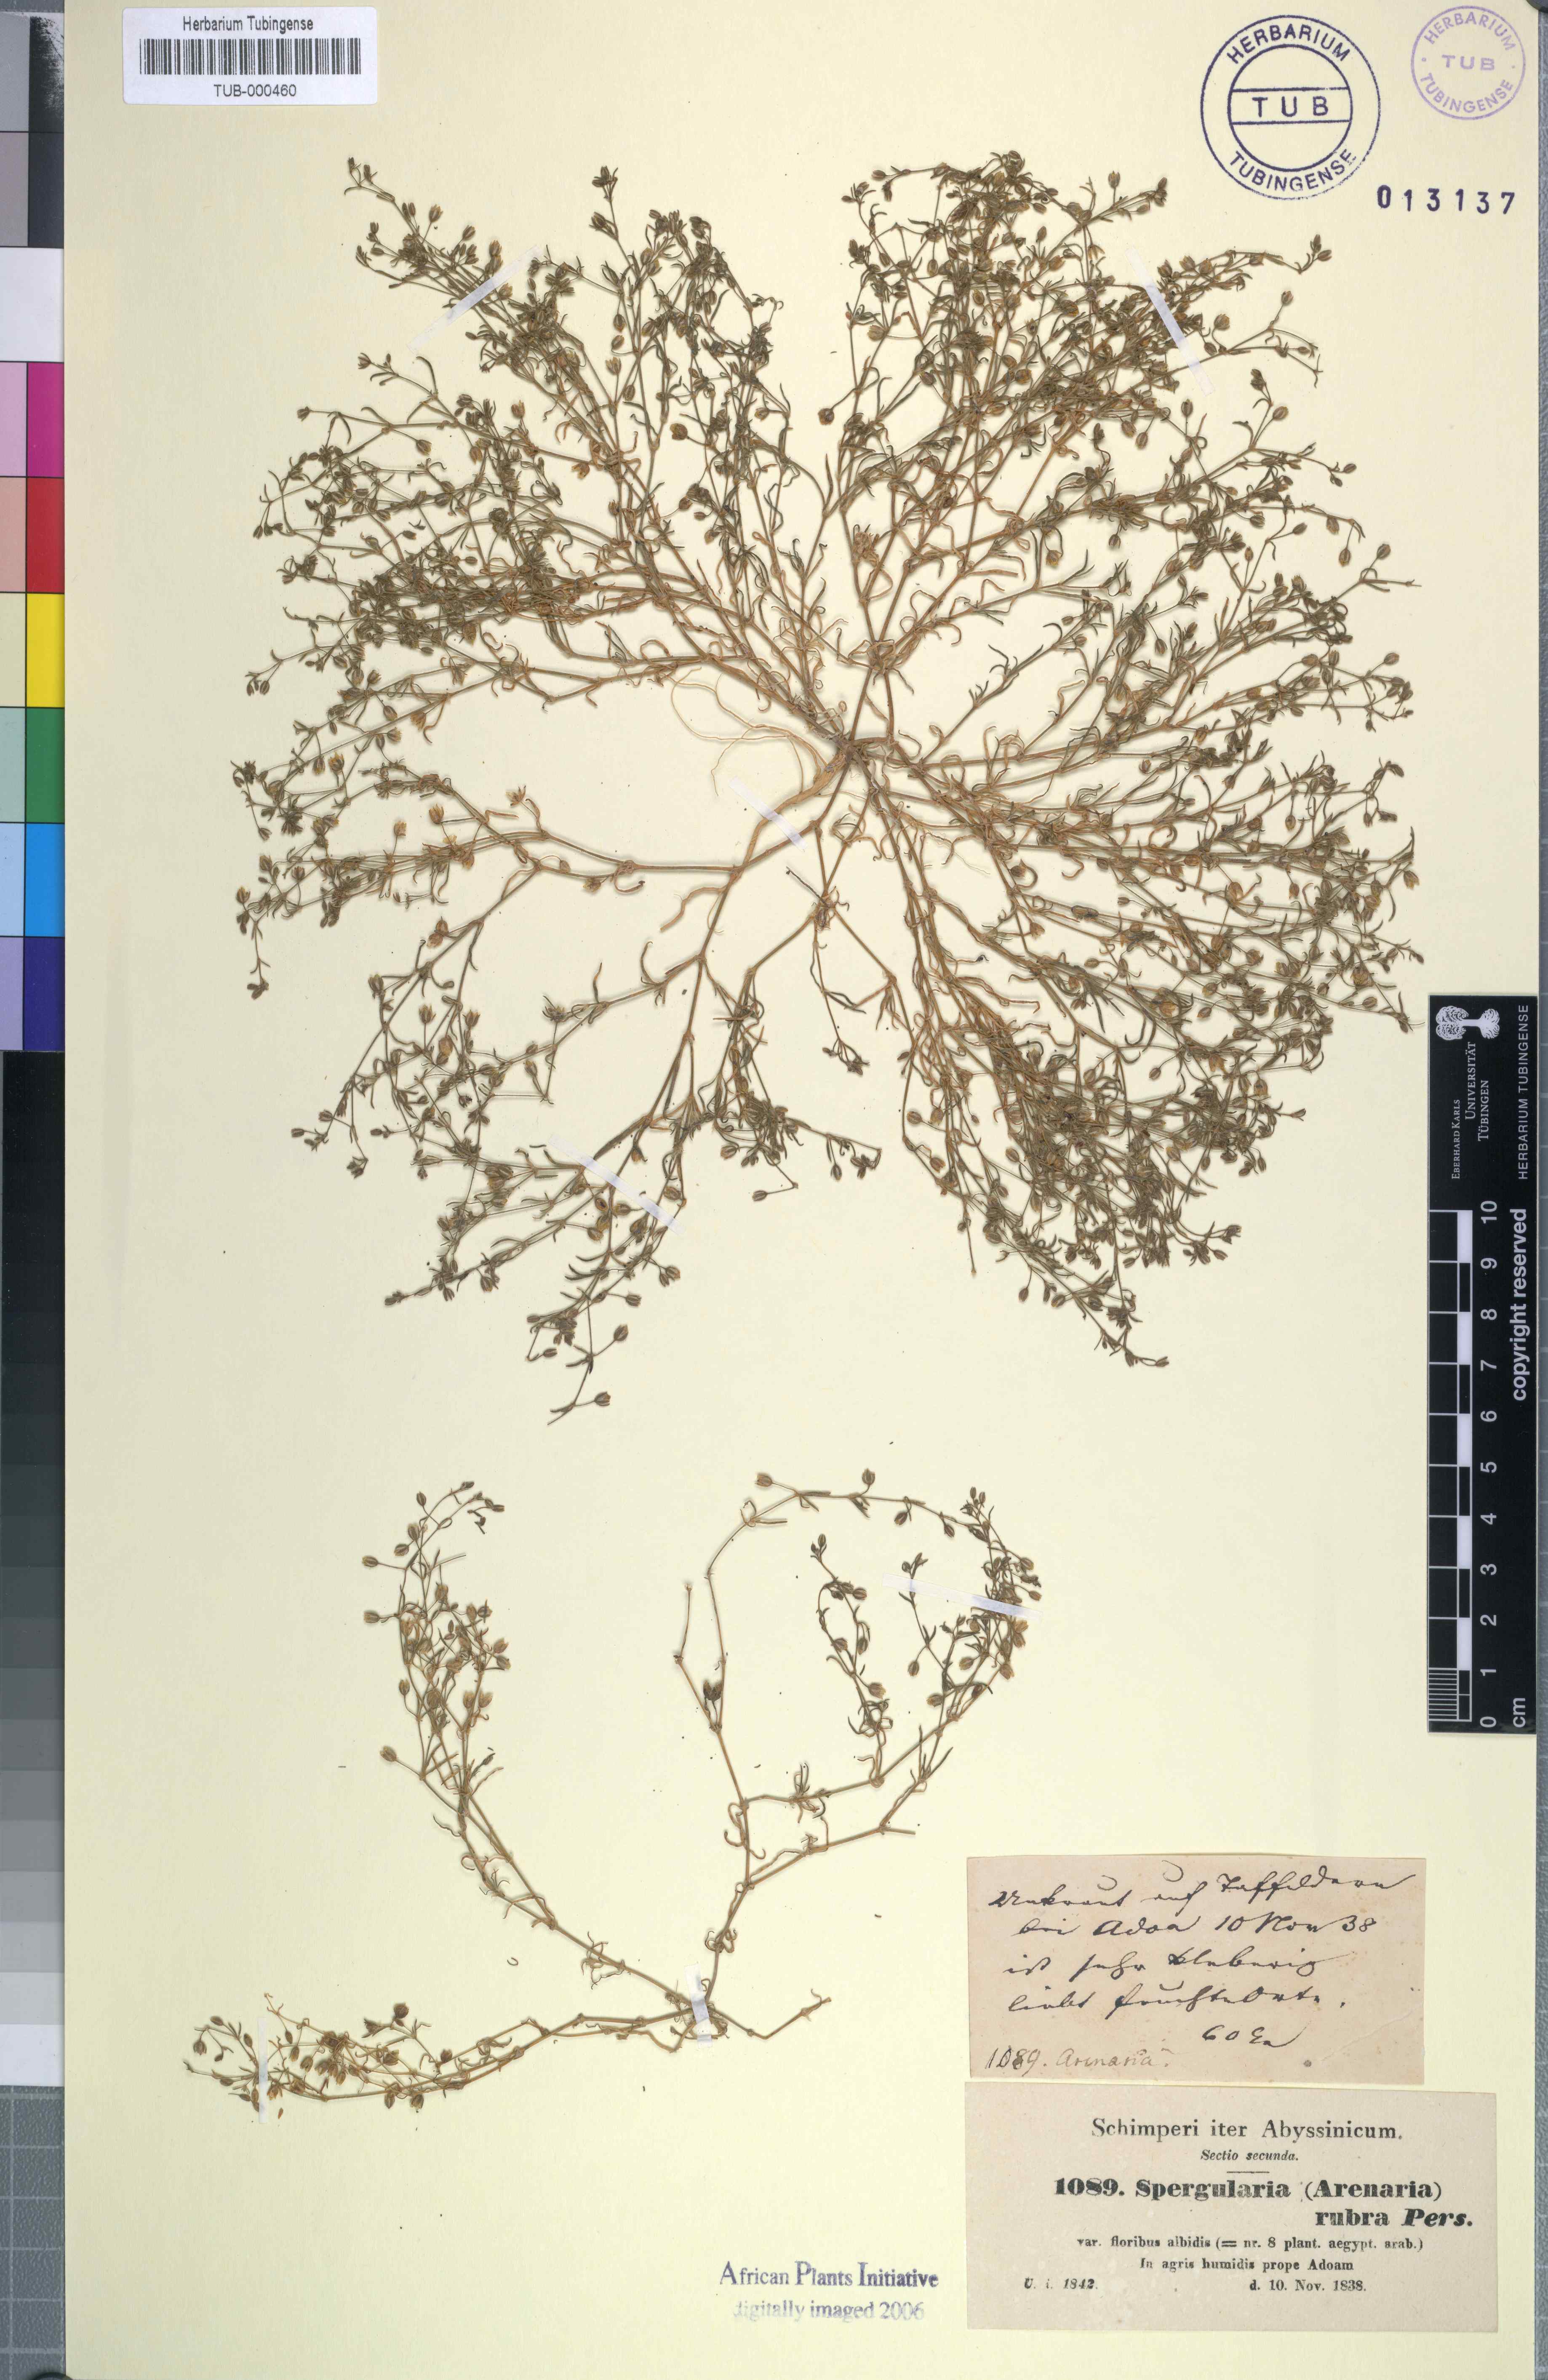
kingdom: Plantae
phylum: Tracheophyta
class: Magnoliopsida
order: Caryophyllales
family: Caryophyllaceae
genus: Spergularia
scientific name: Spergularia rubra
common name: Red sand-spurrey
